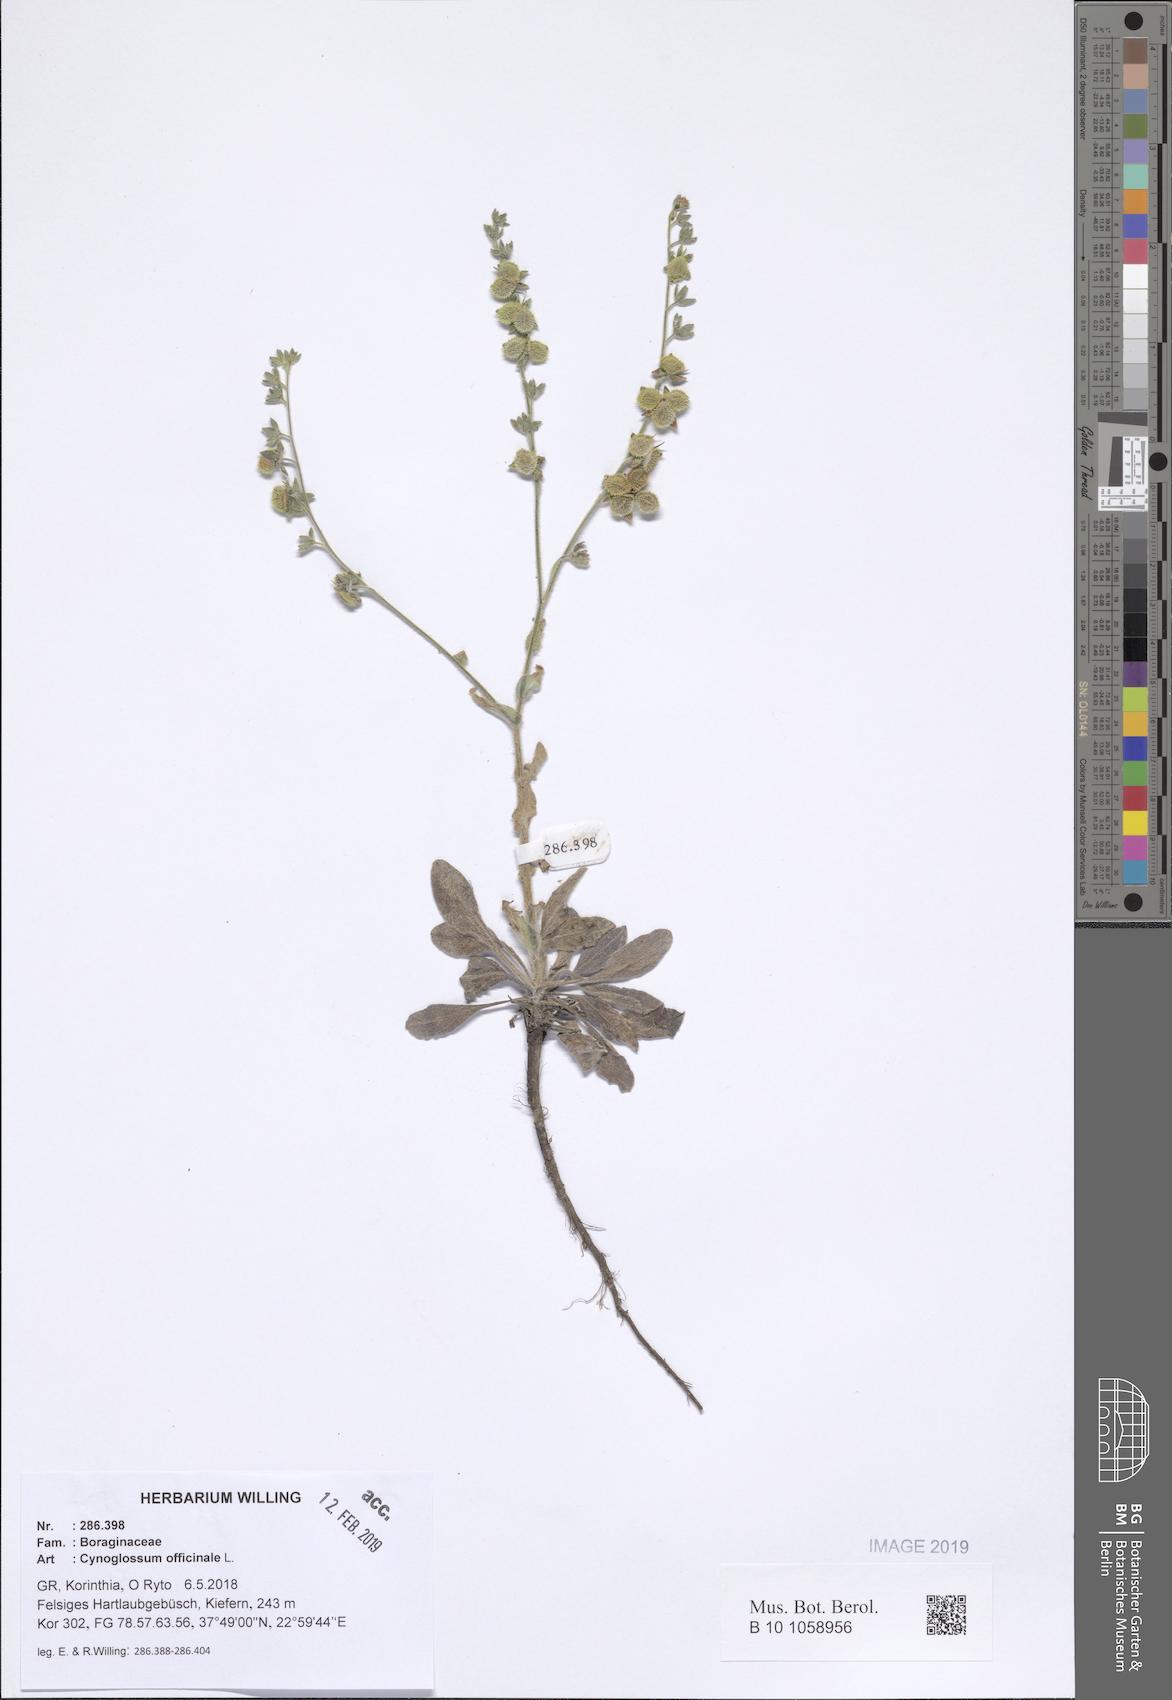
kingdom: Plantae
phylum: Tracheophyta
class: Magnoliopsida
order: Boraginales
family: Boraginaceae
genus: Rindera
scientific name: Rindera columnae
